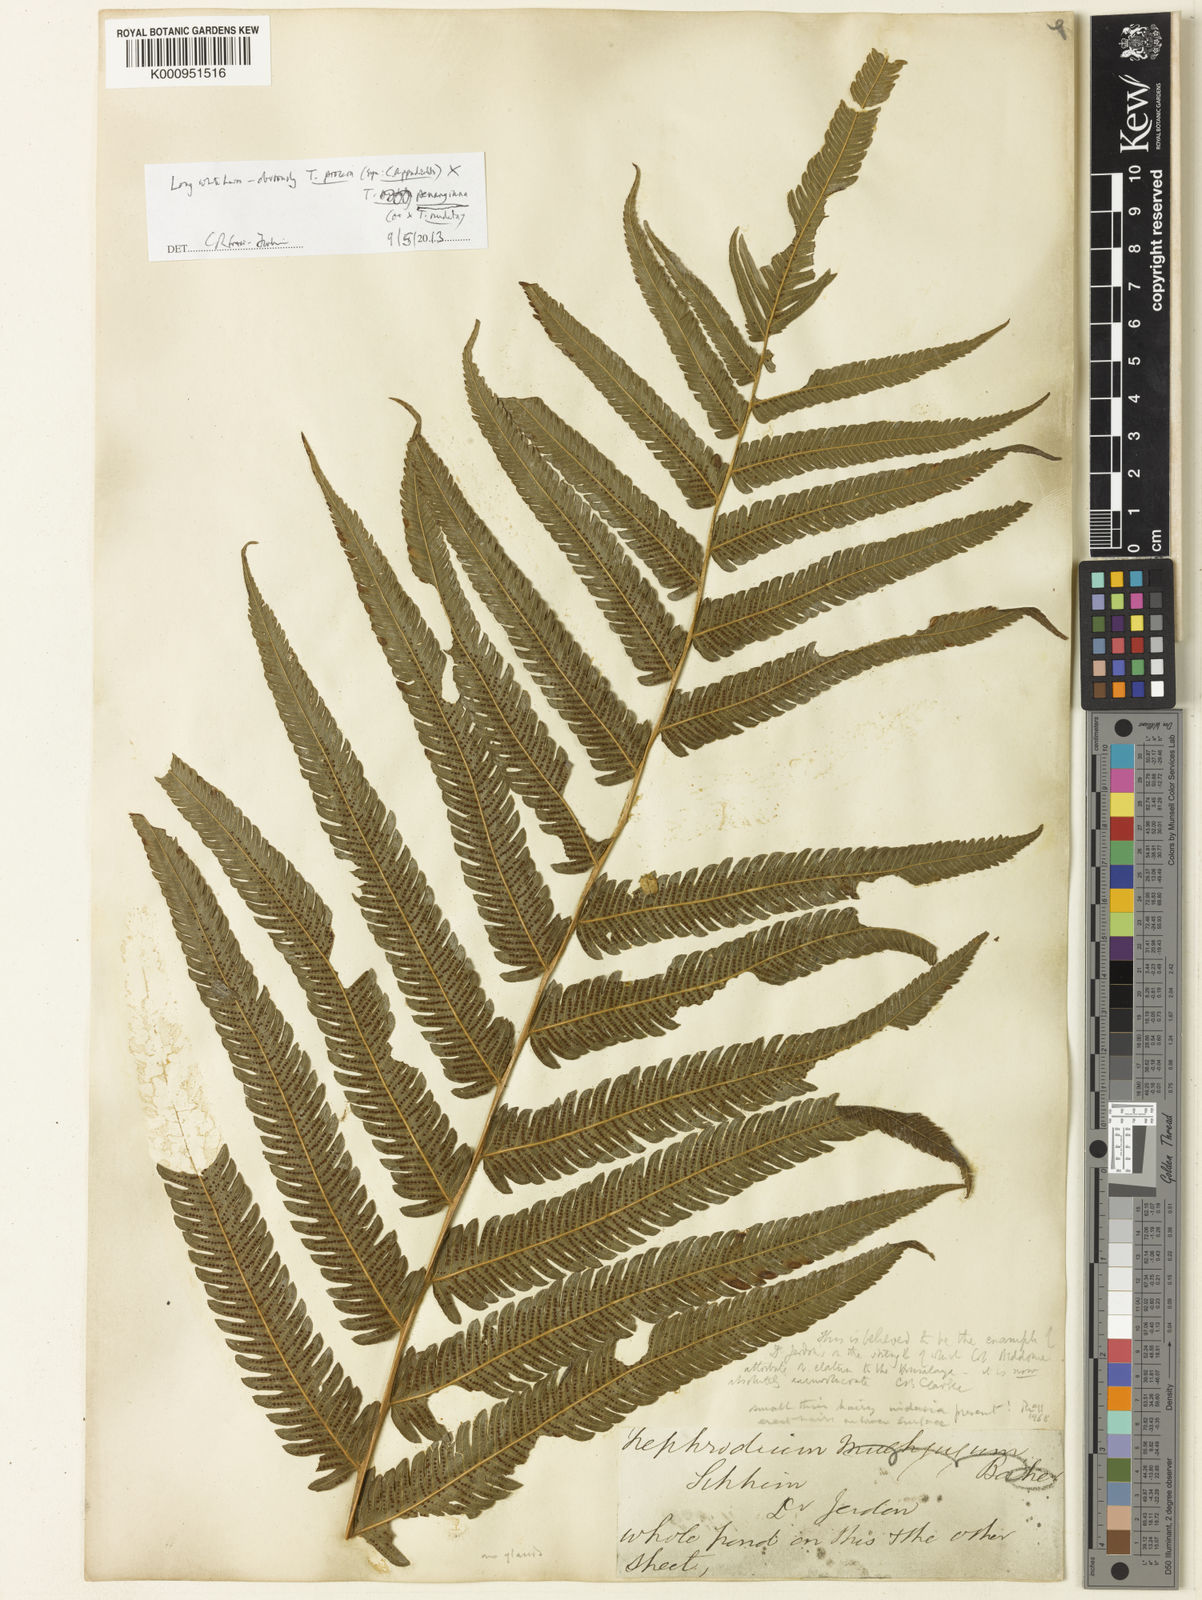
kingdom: Plantae
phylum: Tracheophyta
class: Polypodiopsida
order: Polypodiales
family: Thelypteridaceae
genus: Pronephrium
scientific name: Pronephrium
